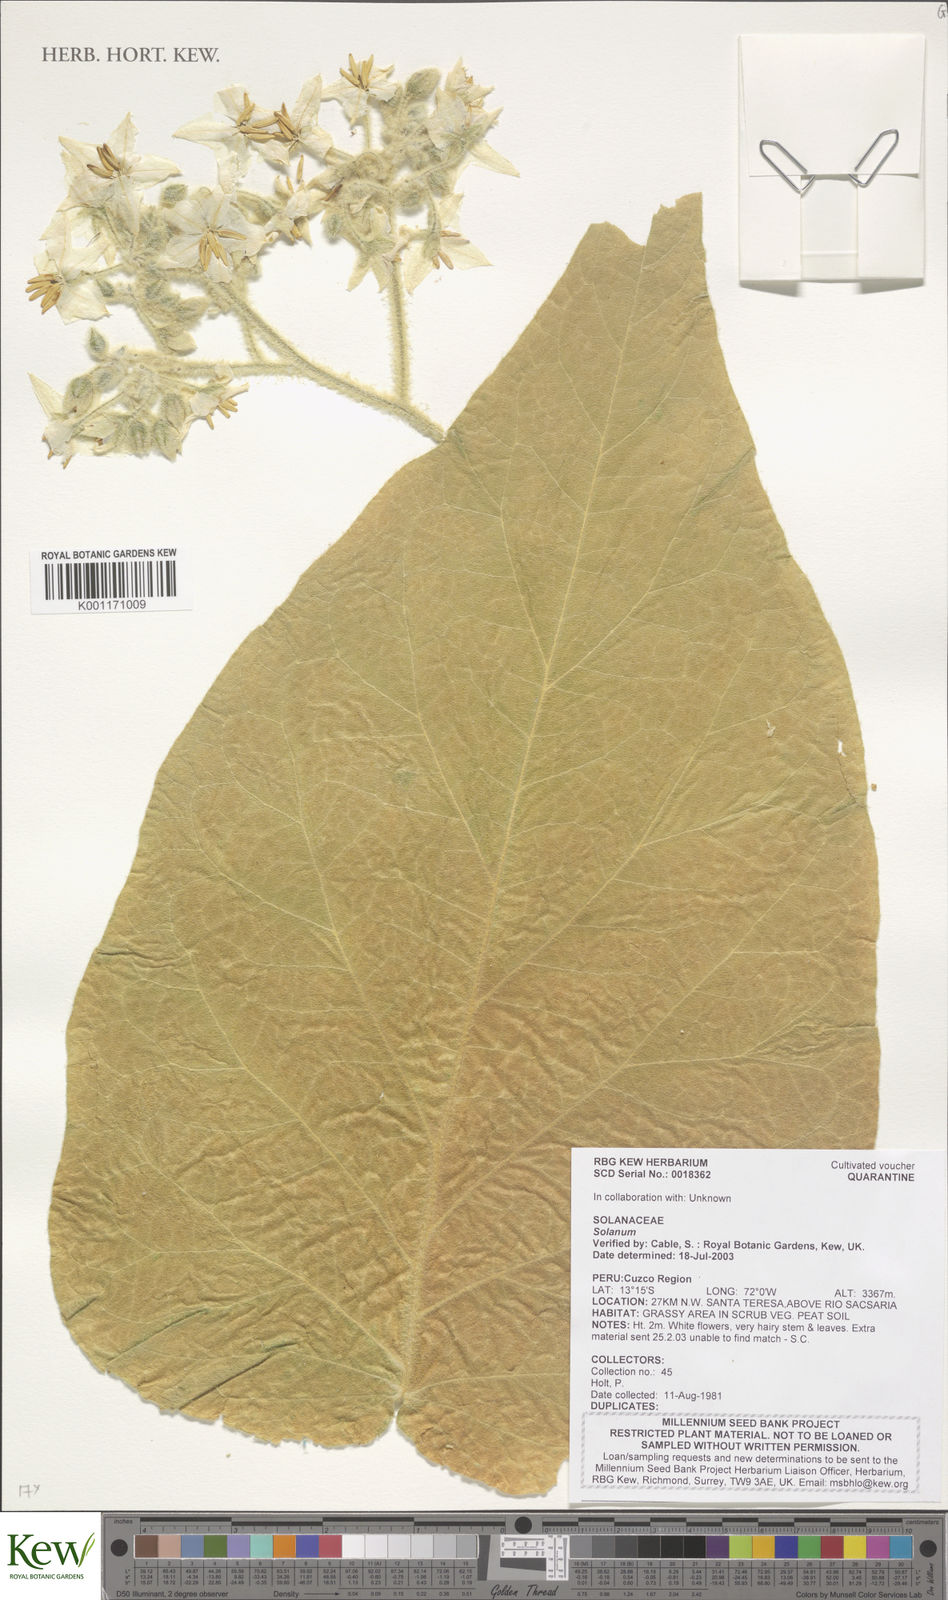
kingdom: Plantae
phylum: Tracheophyta
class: Magnoliopsida
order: Solanales
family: Solanaceae
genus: Solanum
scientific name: Solanum
